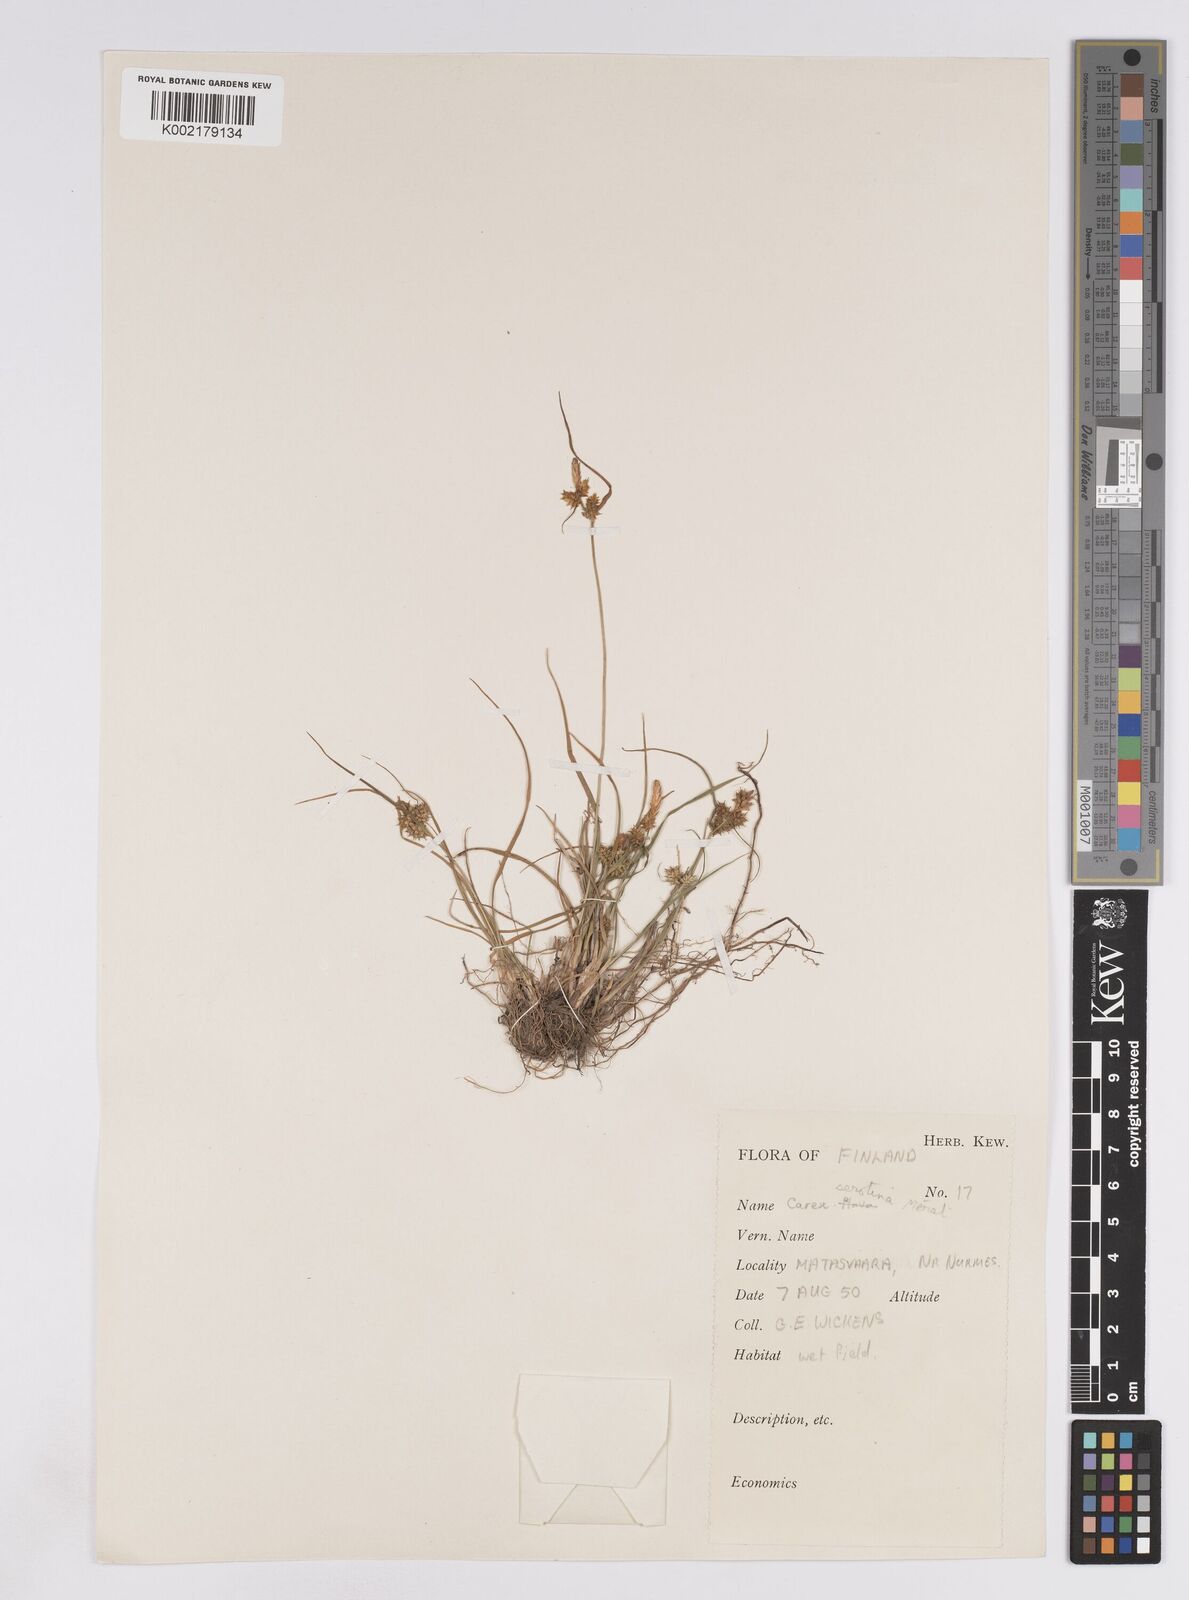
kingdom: Plantae
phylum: Tracheophyta
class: Liliopsida
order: Poales
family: Cyperaceae
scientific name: Cyperaceae
